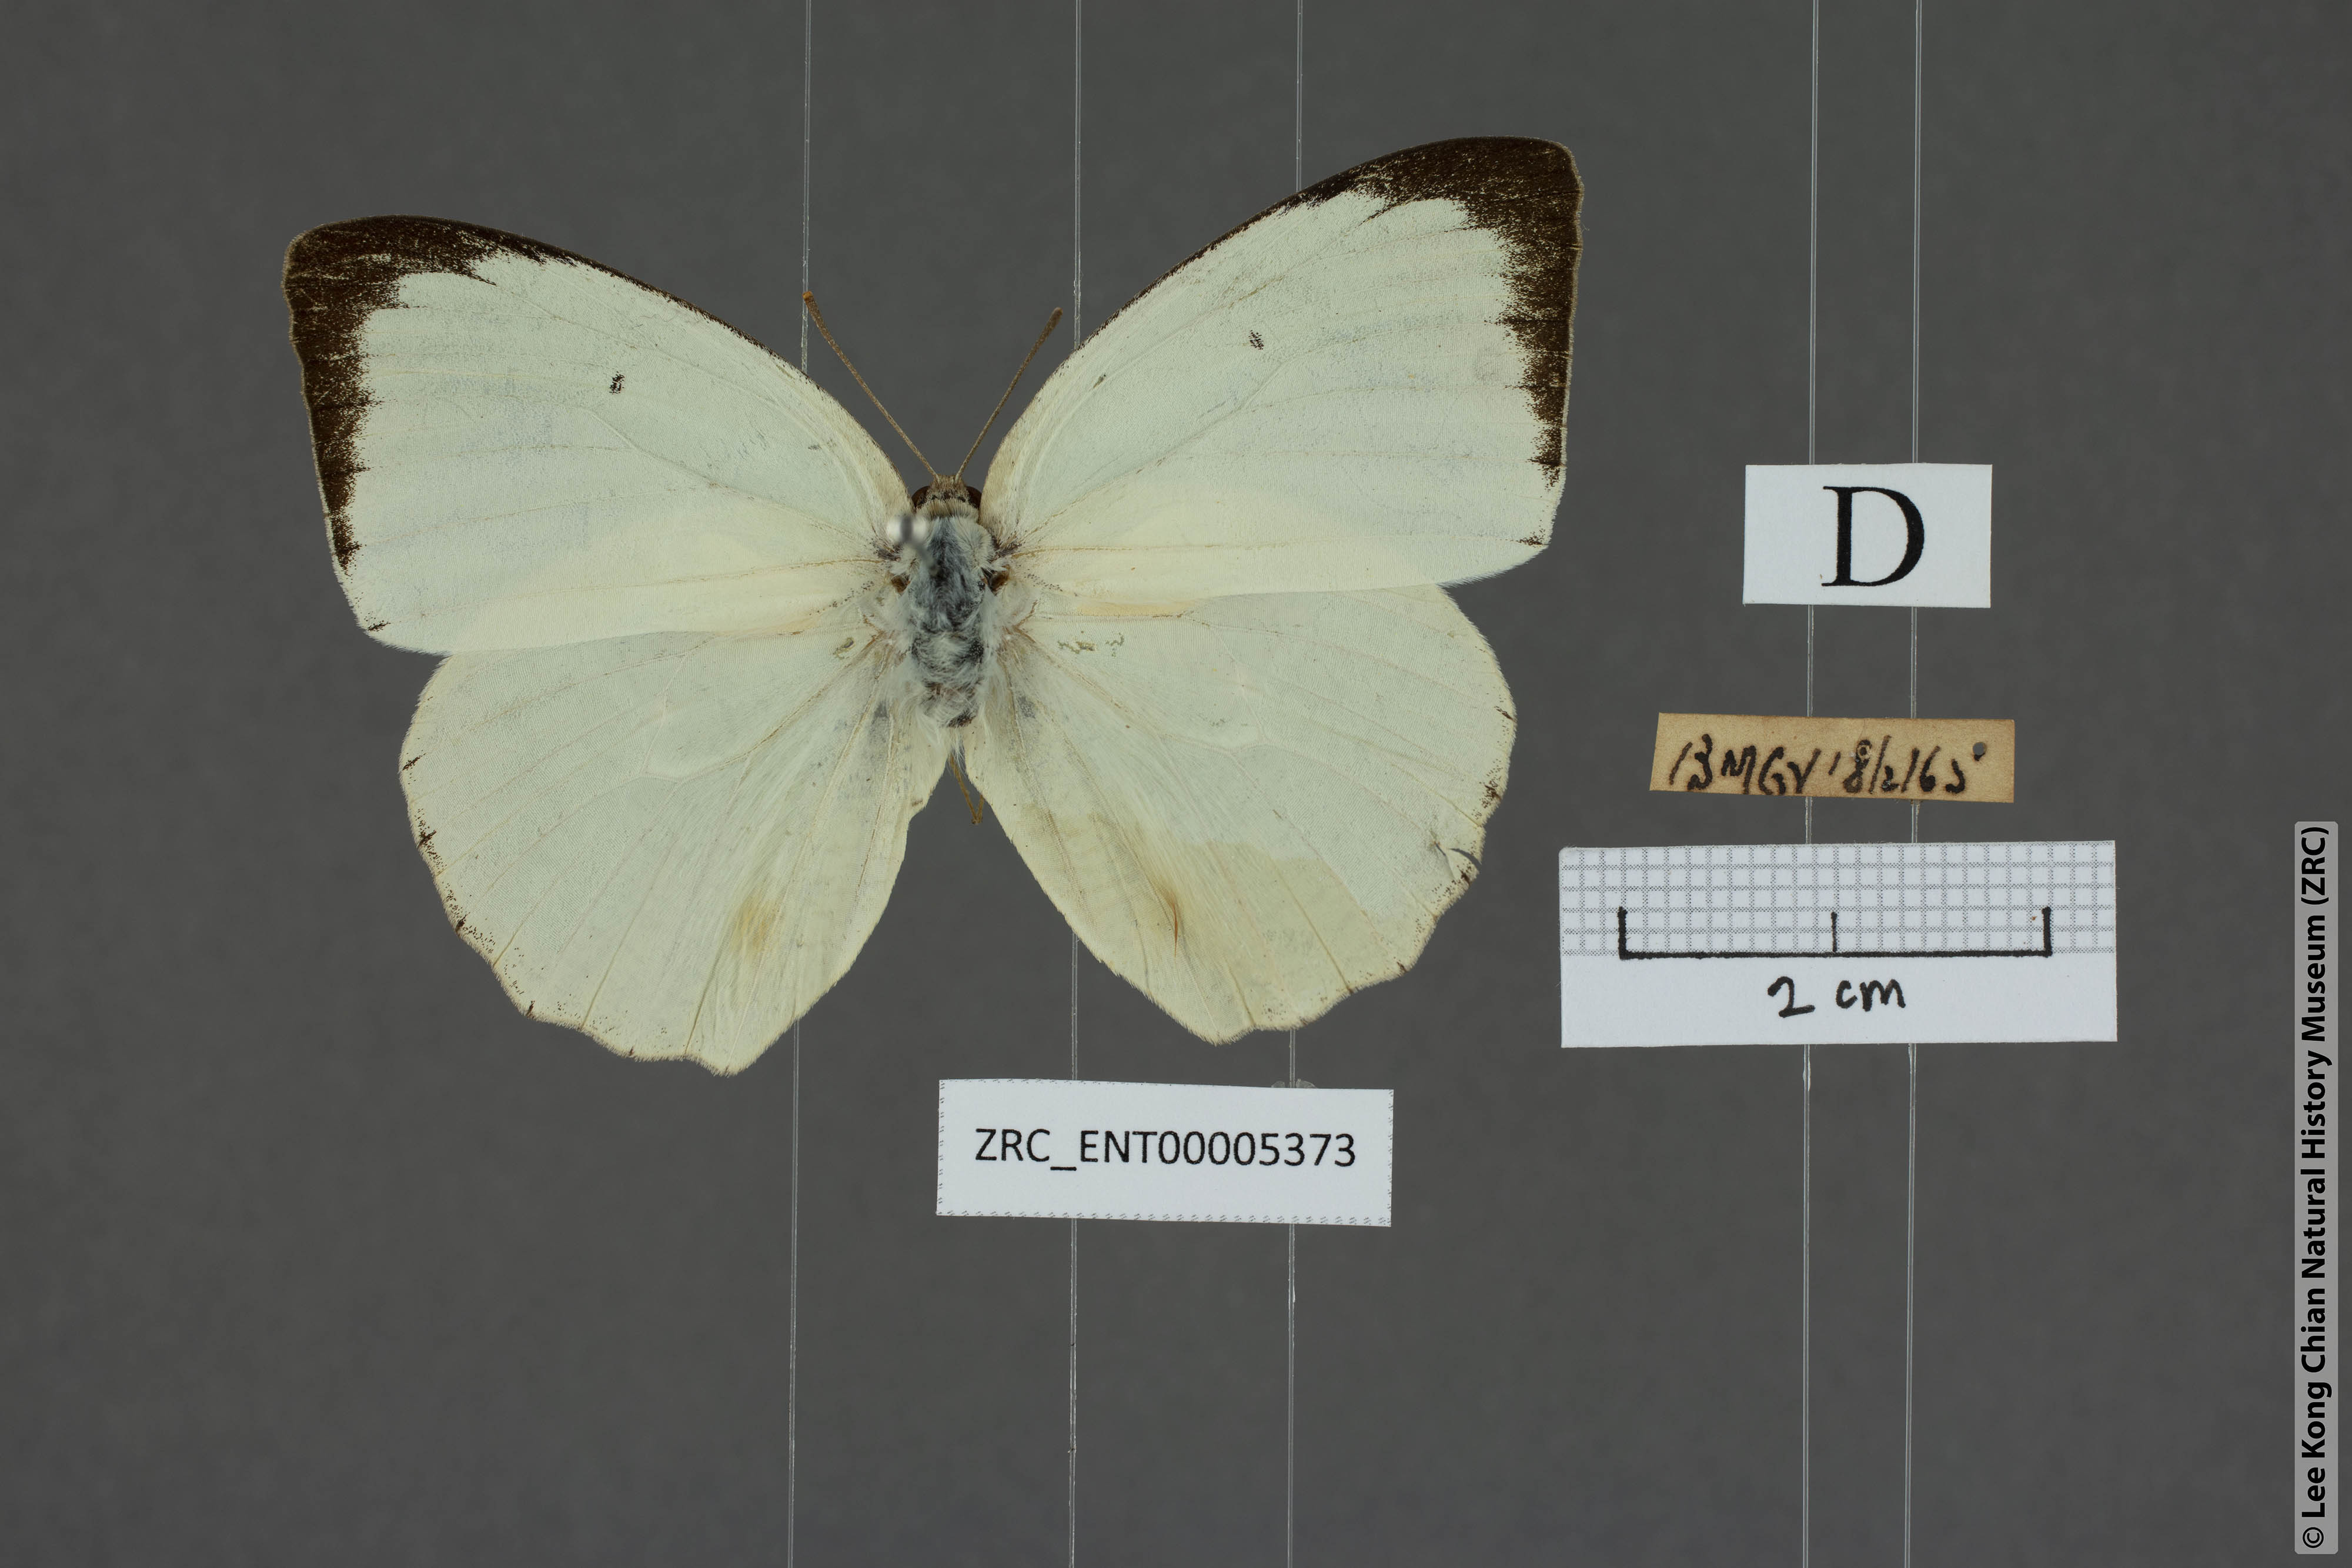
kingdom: Animalia
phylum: Arthropoda
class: Insecta
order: Lepidoptera
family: Pieridae
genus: Catopsilia
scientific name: Catopsilia pyranthe
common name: Mottled emigrant
